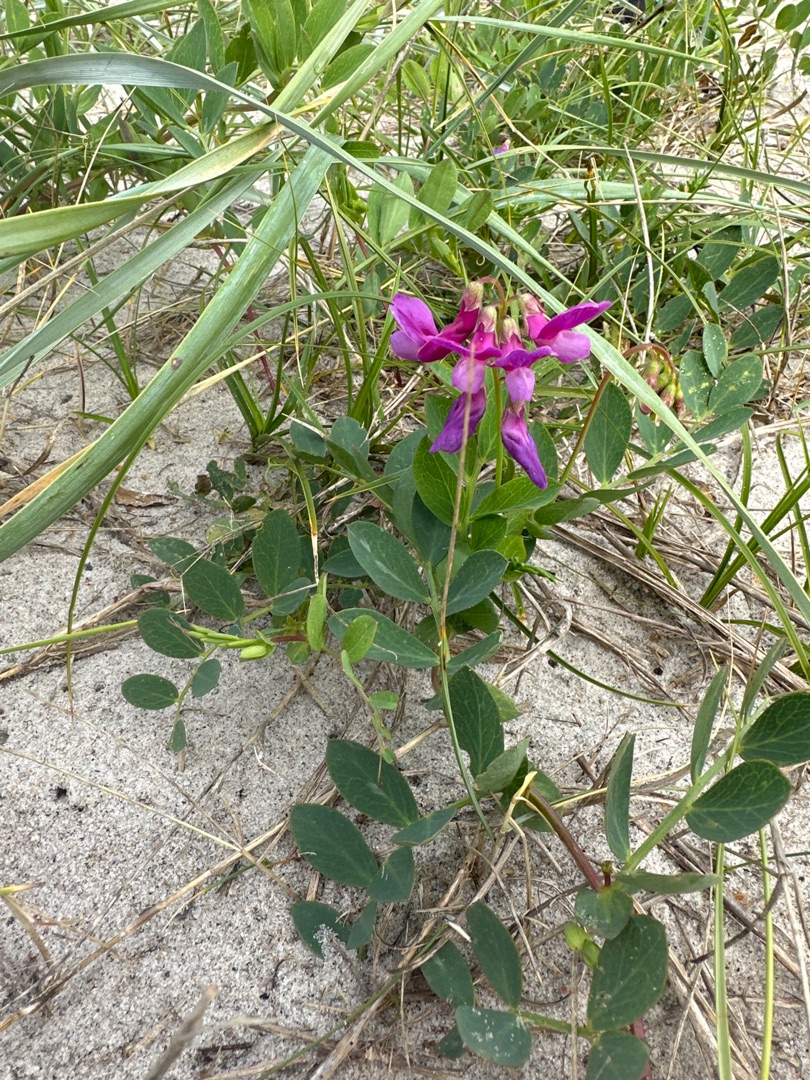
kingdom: Plantae
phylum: Tracheophyta
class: Magnoliopsida
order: Fabales
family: Fabaceae
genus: Lathyrus
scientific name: Lathyrus japonicus
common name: Strand-fladbælg
